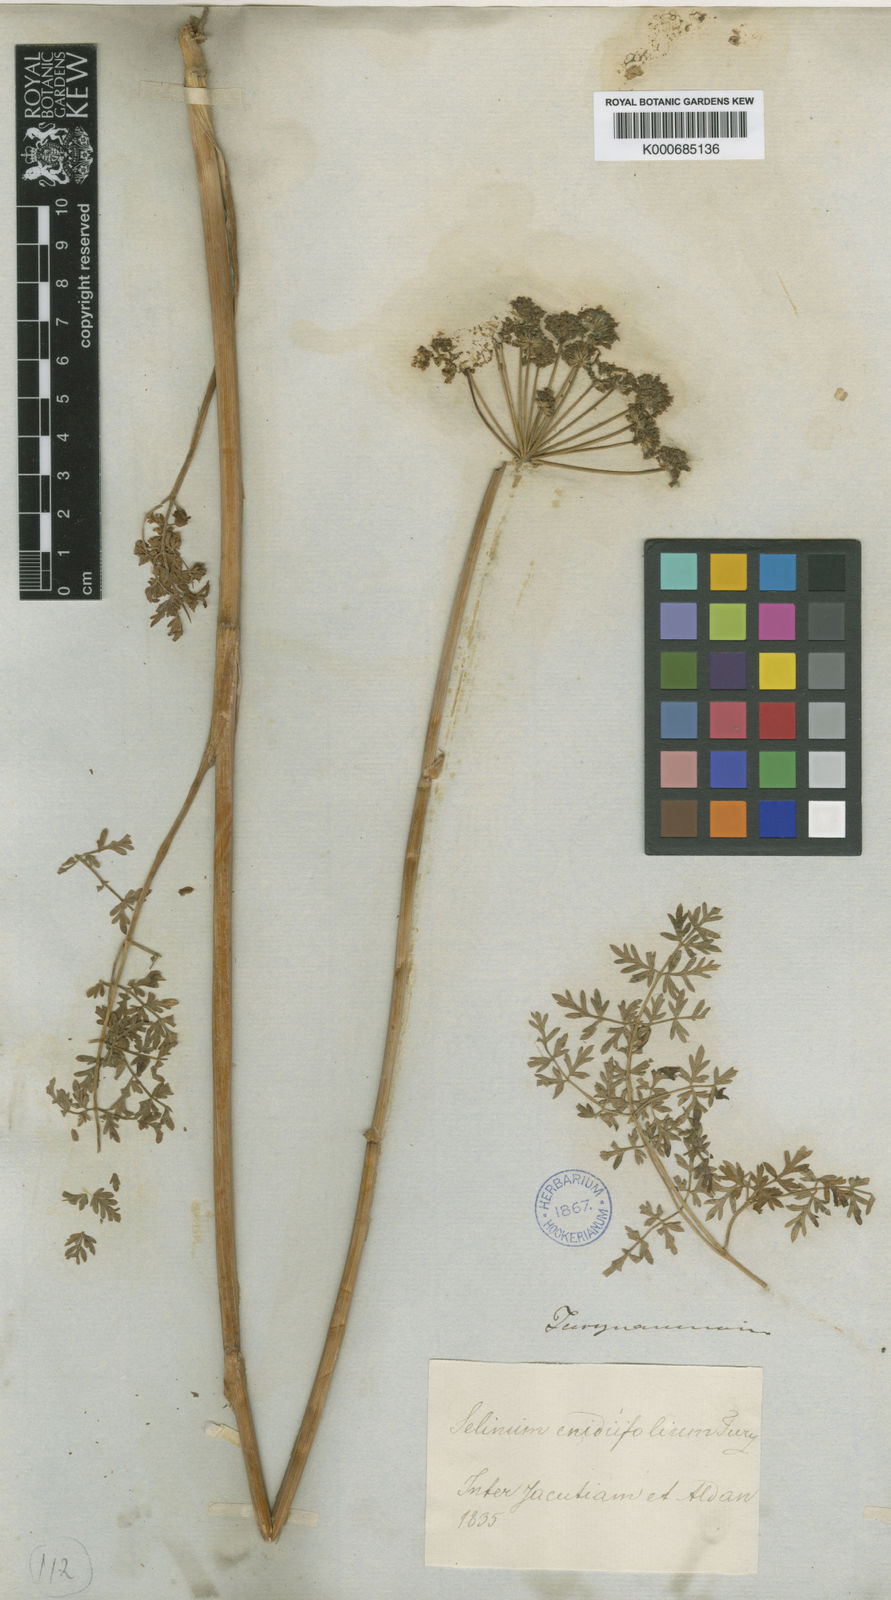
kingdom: Plantae
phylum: Tracheophyta
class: Magnoliopsida
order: Apiales
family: Apiaceae
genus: Cnidium
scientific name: Cnidium cnidiifolium
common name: Northern hemlock-parsley
